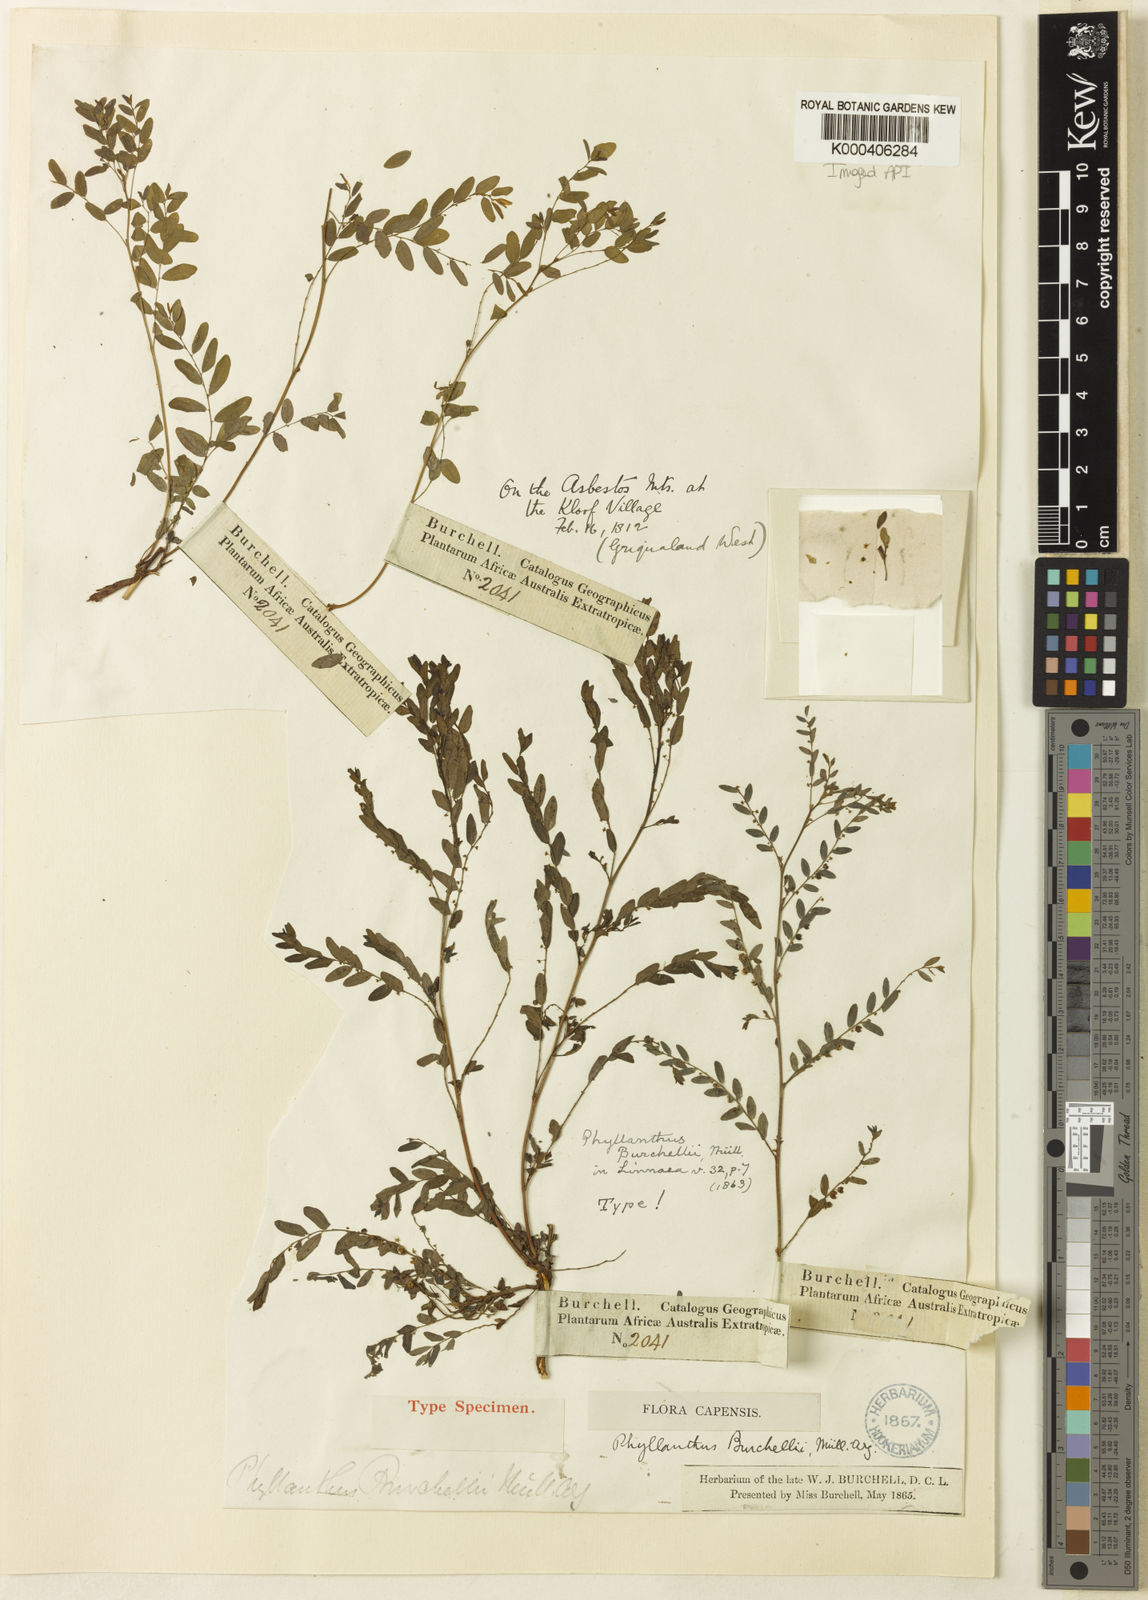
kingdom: Plantae
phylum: Tracheophyta
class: Magnoliopsida
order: Malpighiales
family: Phyllanthaceae
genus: Phyllanthus
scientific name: Phyllanthus
